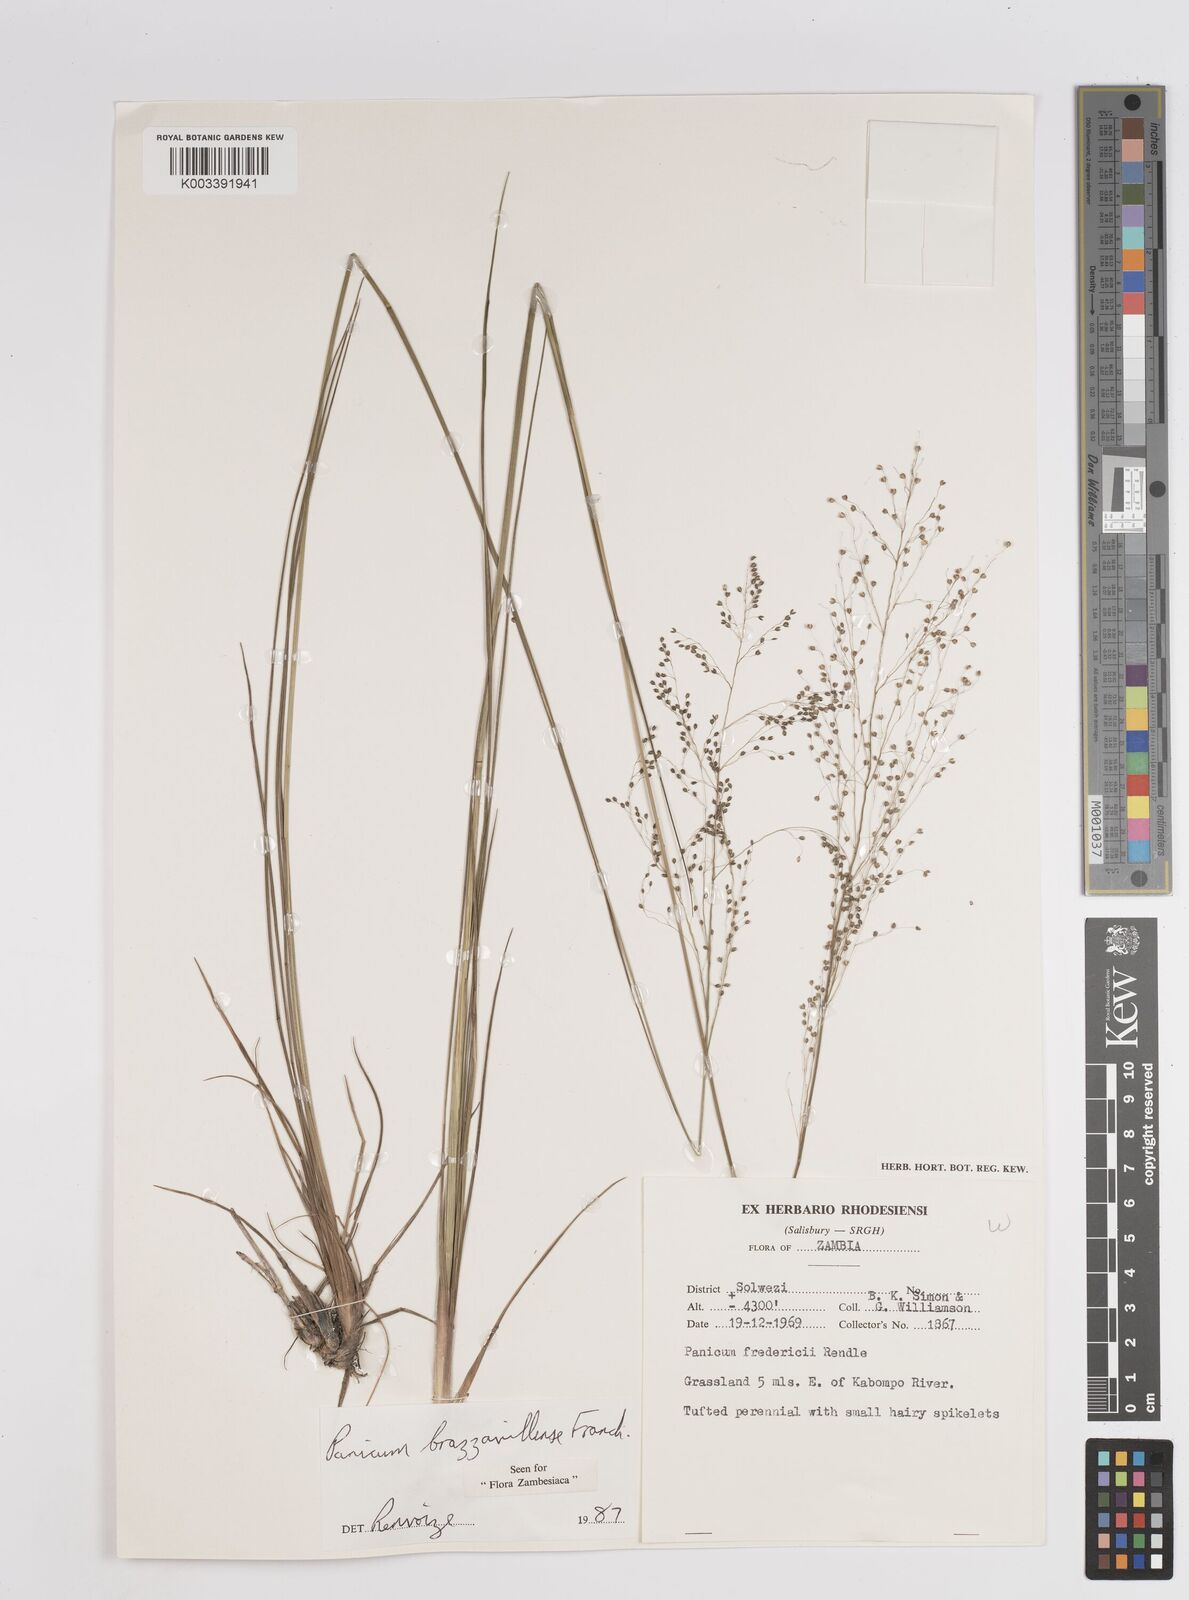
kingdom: Plantae
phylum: Tracheophyta
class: Liliopsida
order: Poales
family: Poaceae
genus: Trichanthecium
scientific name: Trichanthecium brazzavillense
